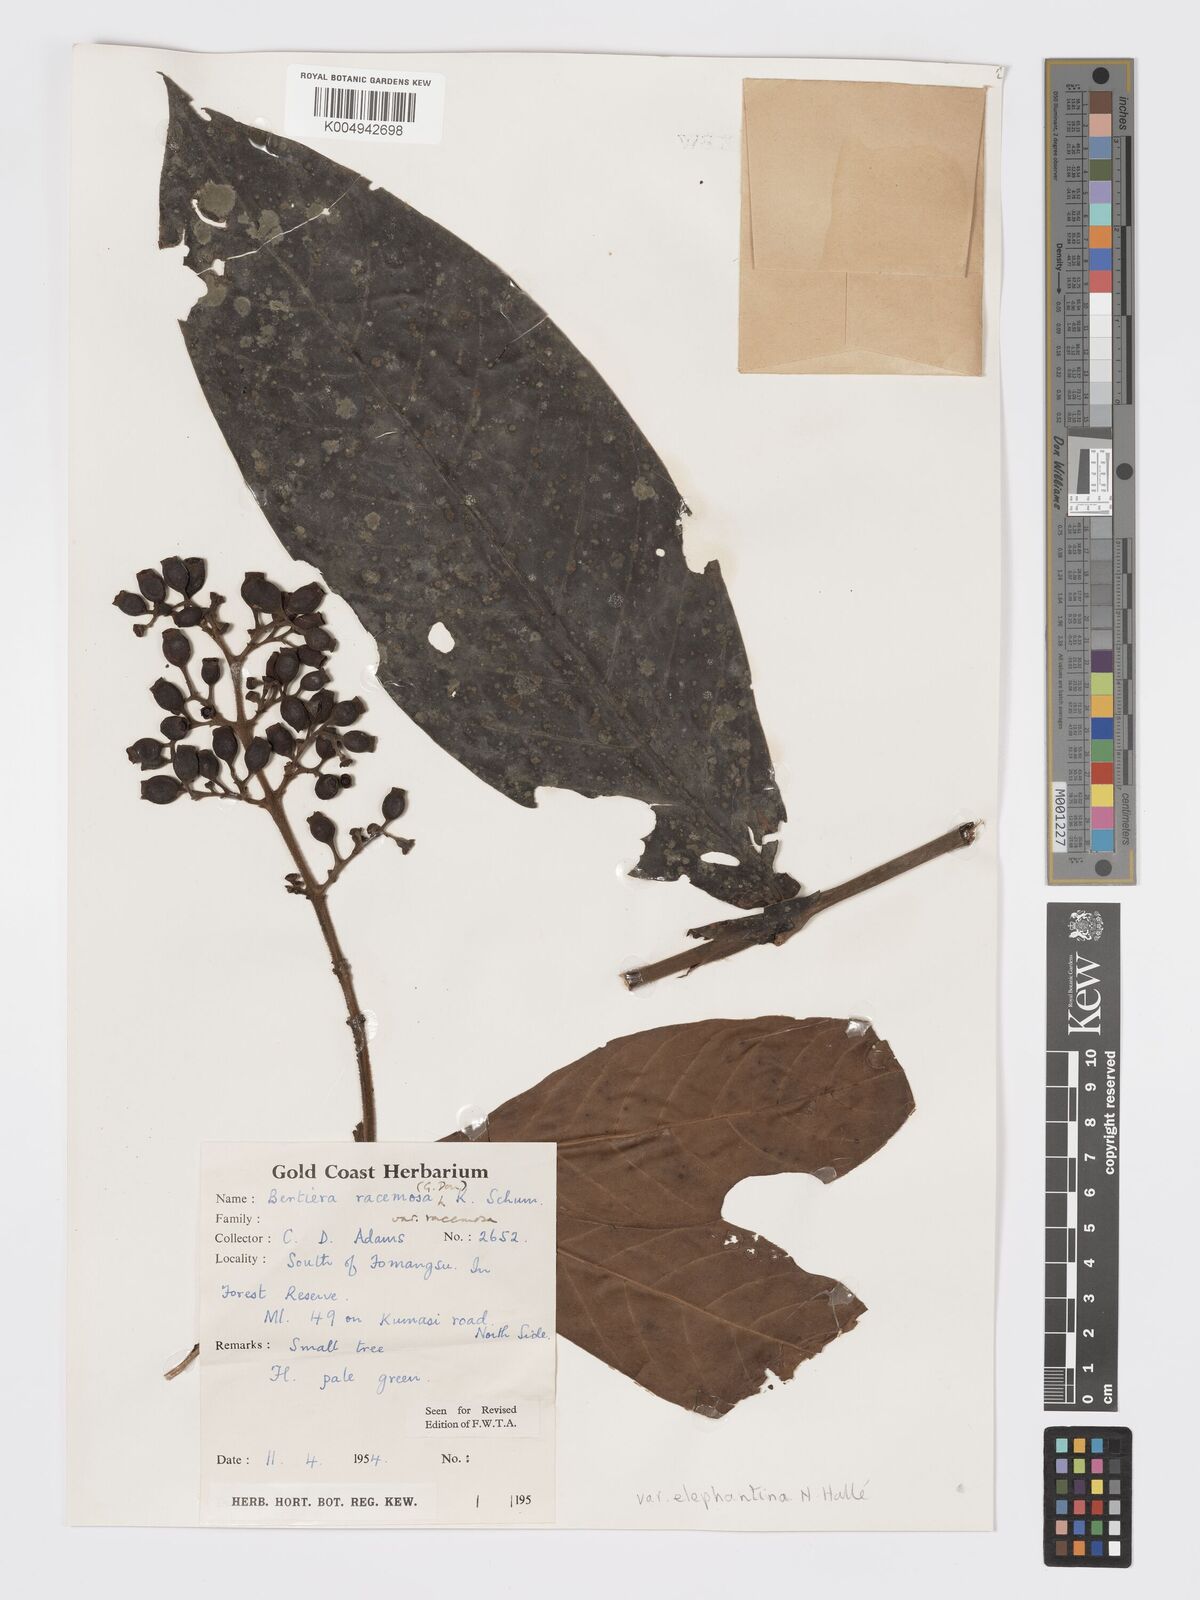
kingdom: Plantae
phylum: Tracheophyta
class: Magnoliopsida
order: Gentianales
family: Rubiaceae
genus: Bertiera
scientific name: Bertiera racemosa
